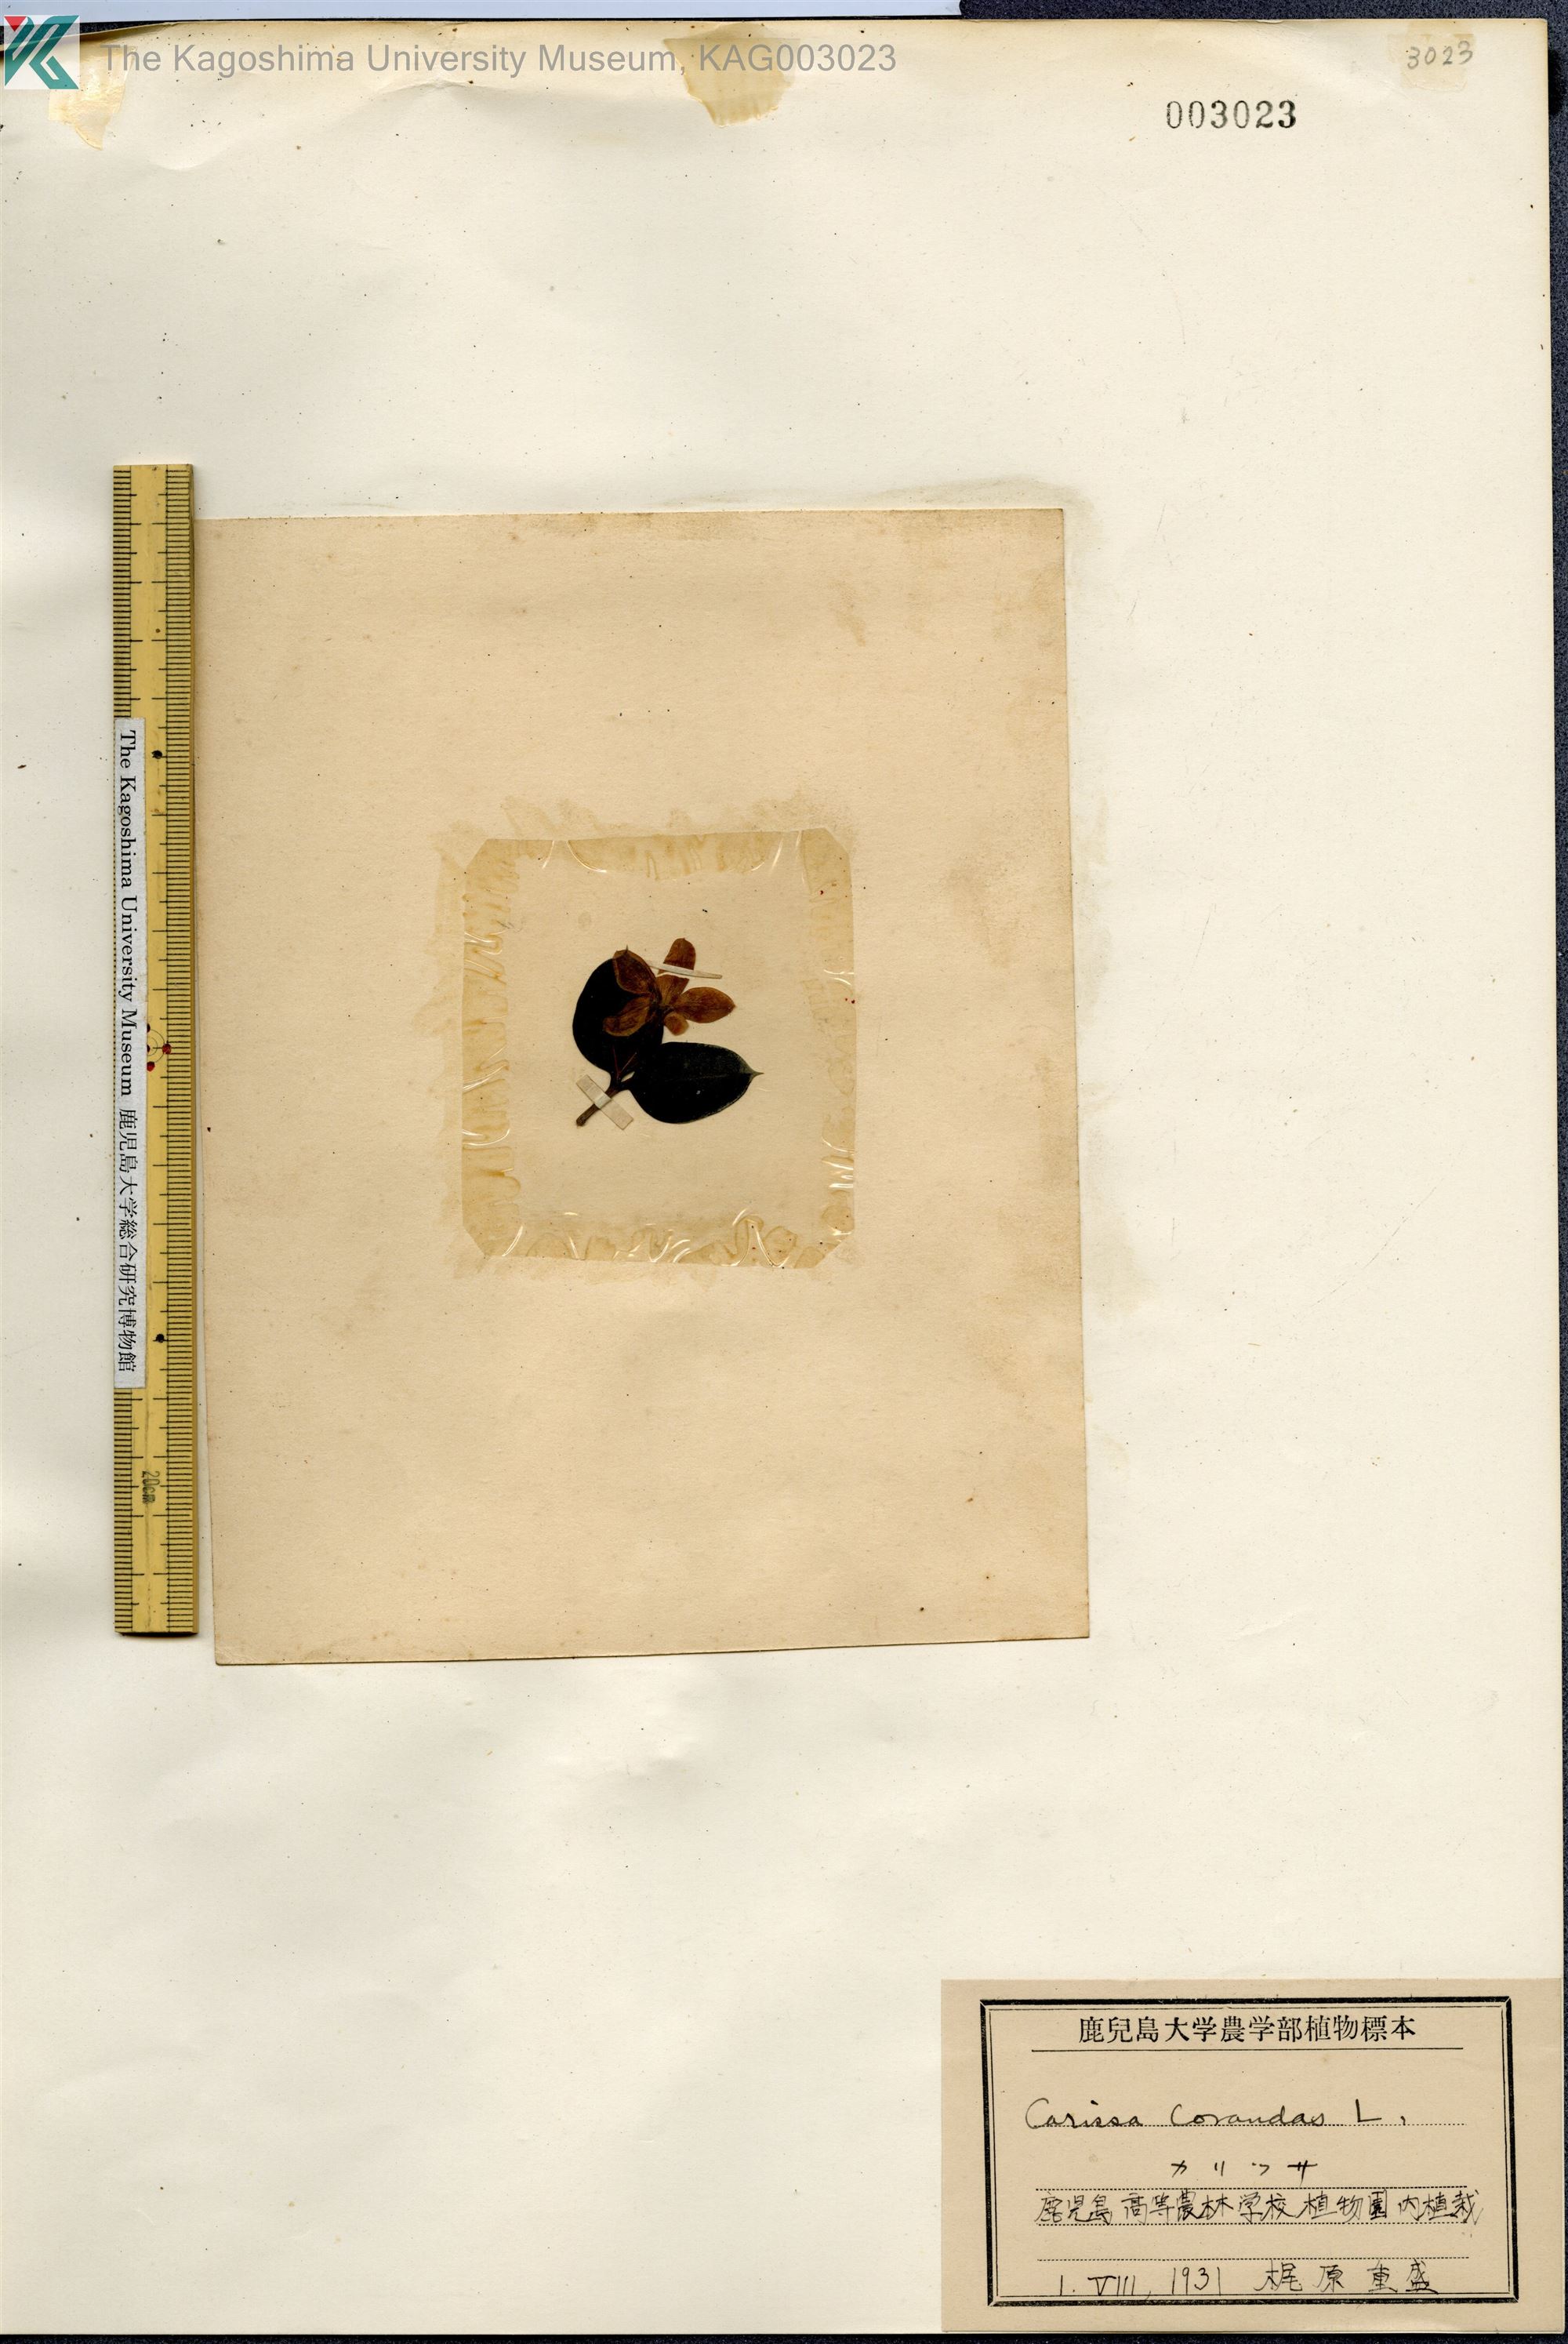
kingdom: Plantae
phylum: Tracheophyta
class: Magnoliopsida
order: Gentianales
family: Apocynaceae
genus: Carissa
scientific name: Carissa carandas
